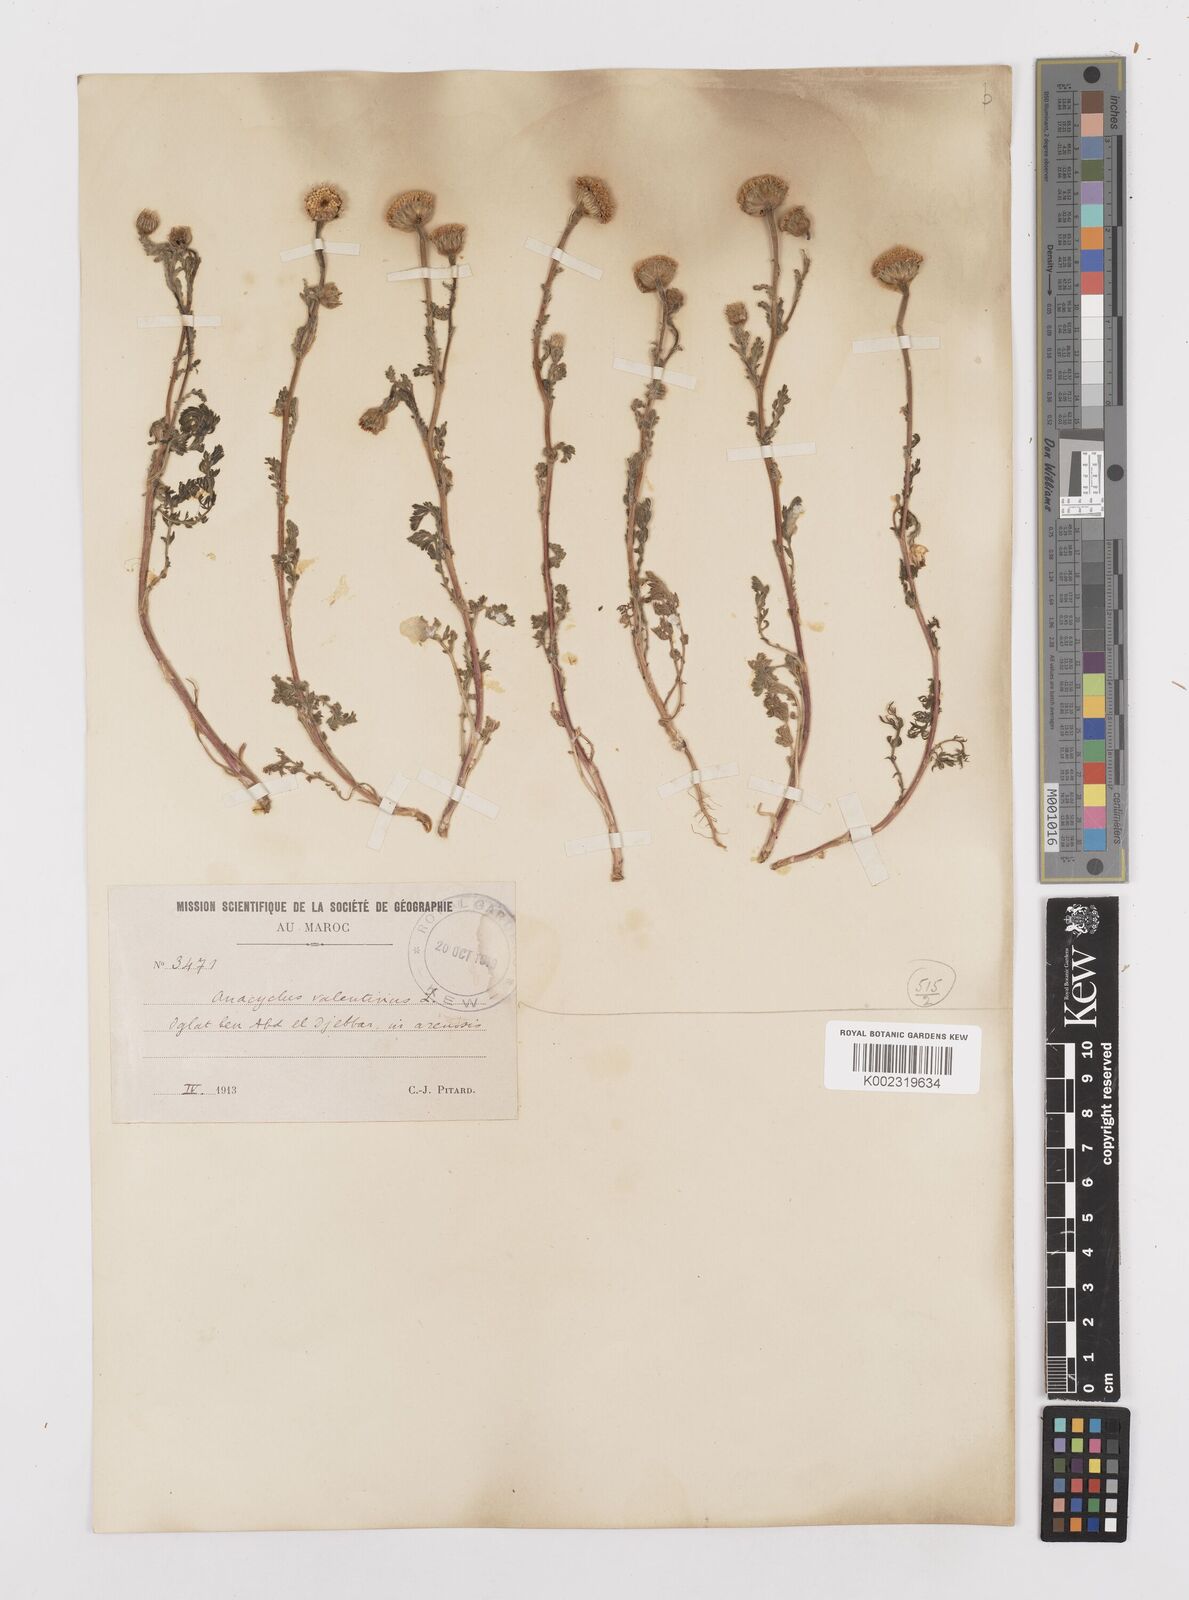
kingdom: Plantae
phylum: Tracheophyta
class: Magnoliopsida
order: Asterales
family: Asteraceae
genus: Anacyclus
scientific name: Anacyclus valentinus
